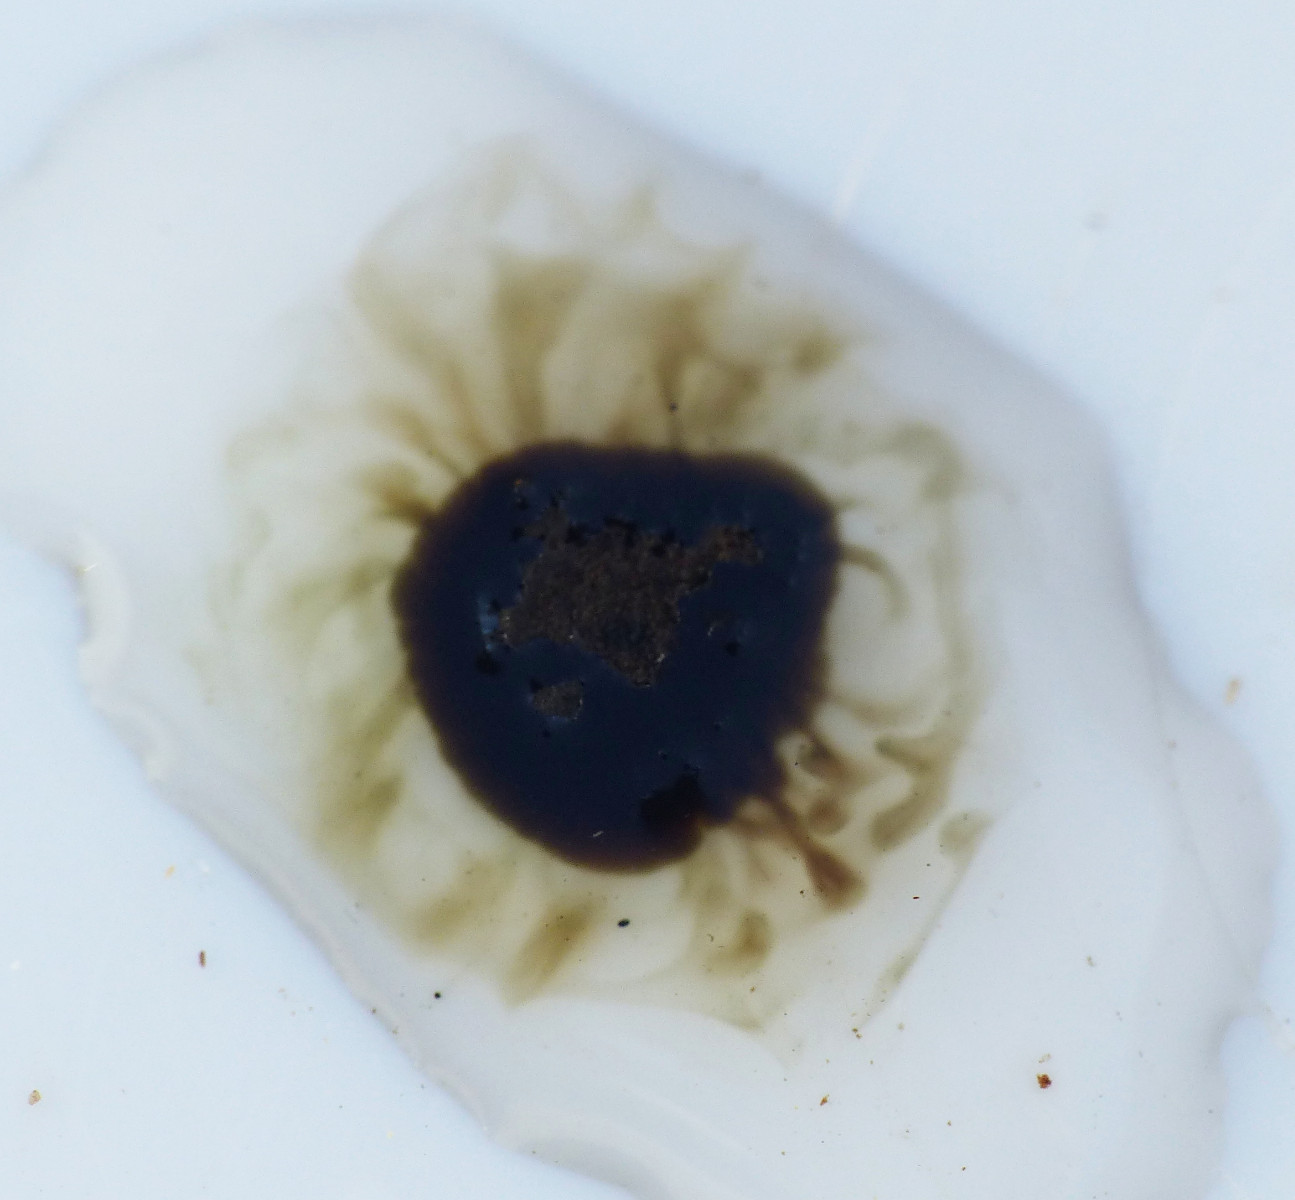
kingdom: Fungi
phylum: Ascomycota
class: Sordariomycetes
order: Xylariales
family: Hypoxylaceae
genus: Hypoxylon
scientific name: Hypoxylon macrocarpum
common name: skorpe-kulbær
